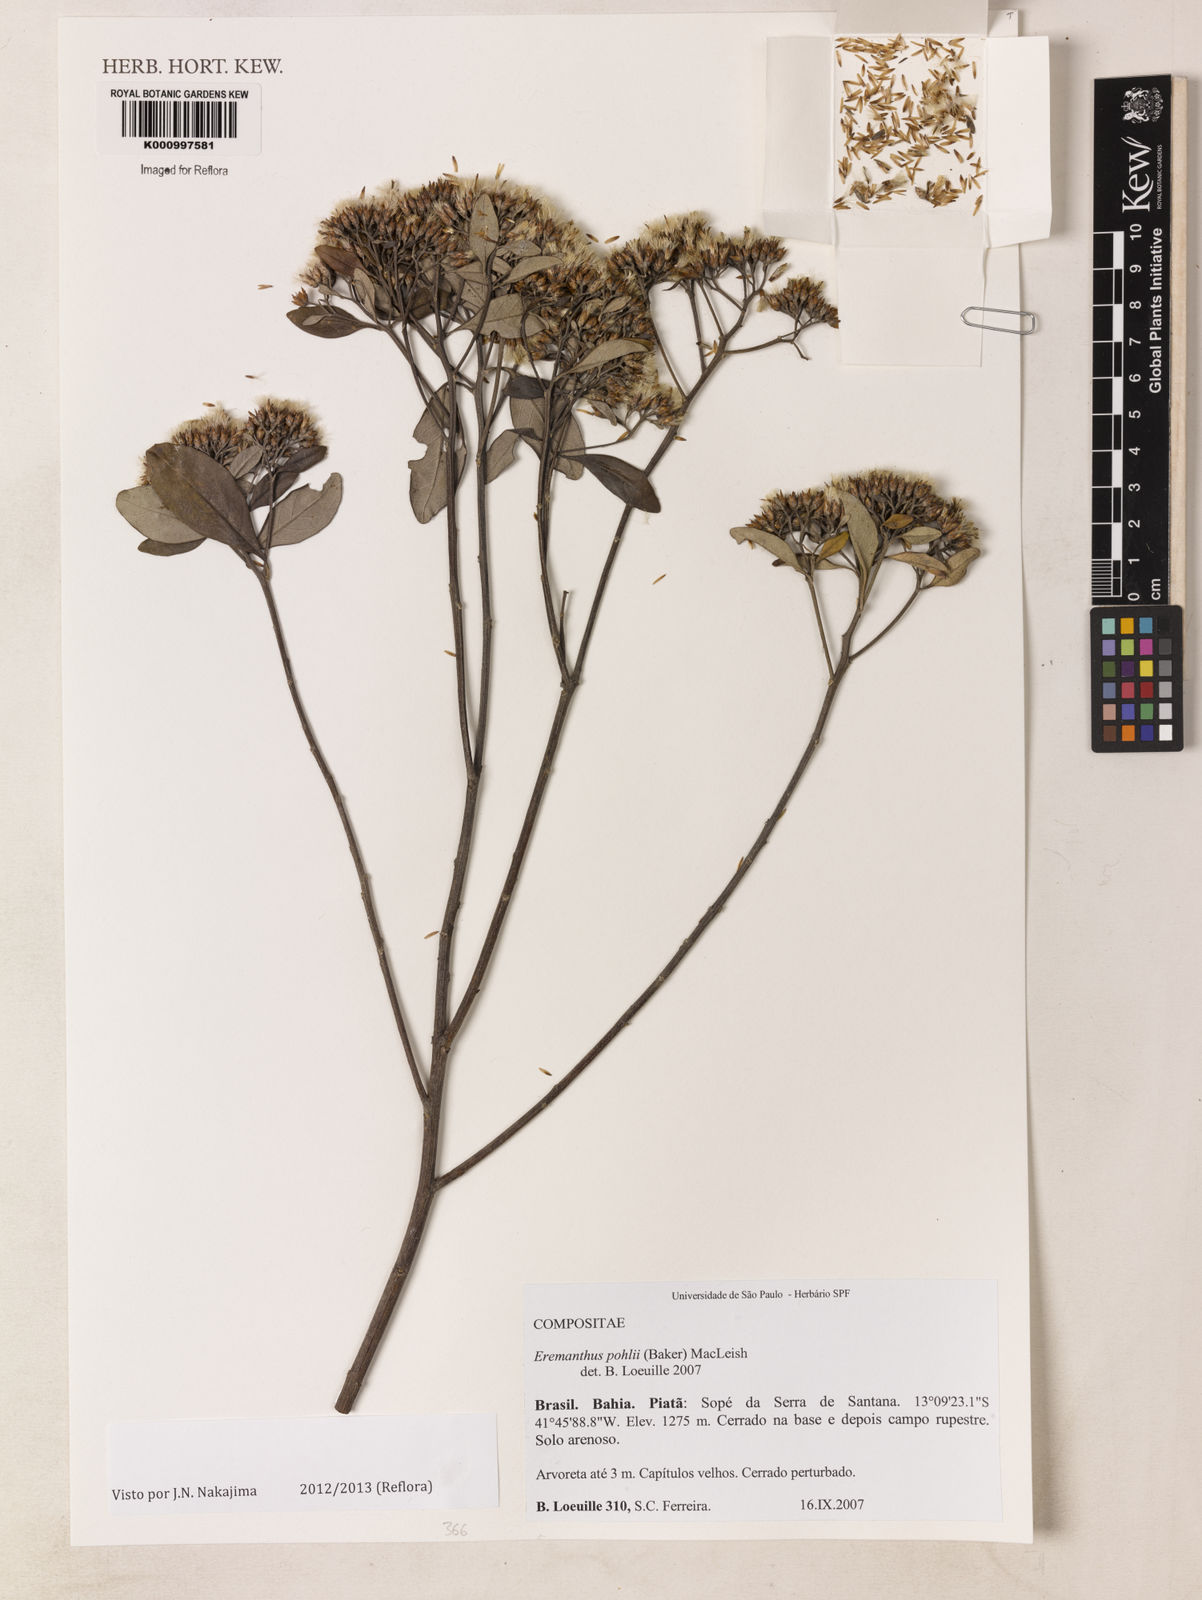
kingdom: Plantae
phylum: Tracheophyta
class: Magnoliopsida
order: Asterales
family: Asteraceae
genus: Eremanthus
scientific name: Eremanthus capitatus
